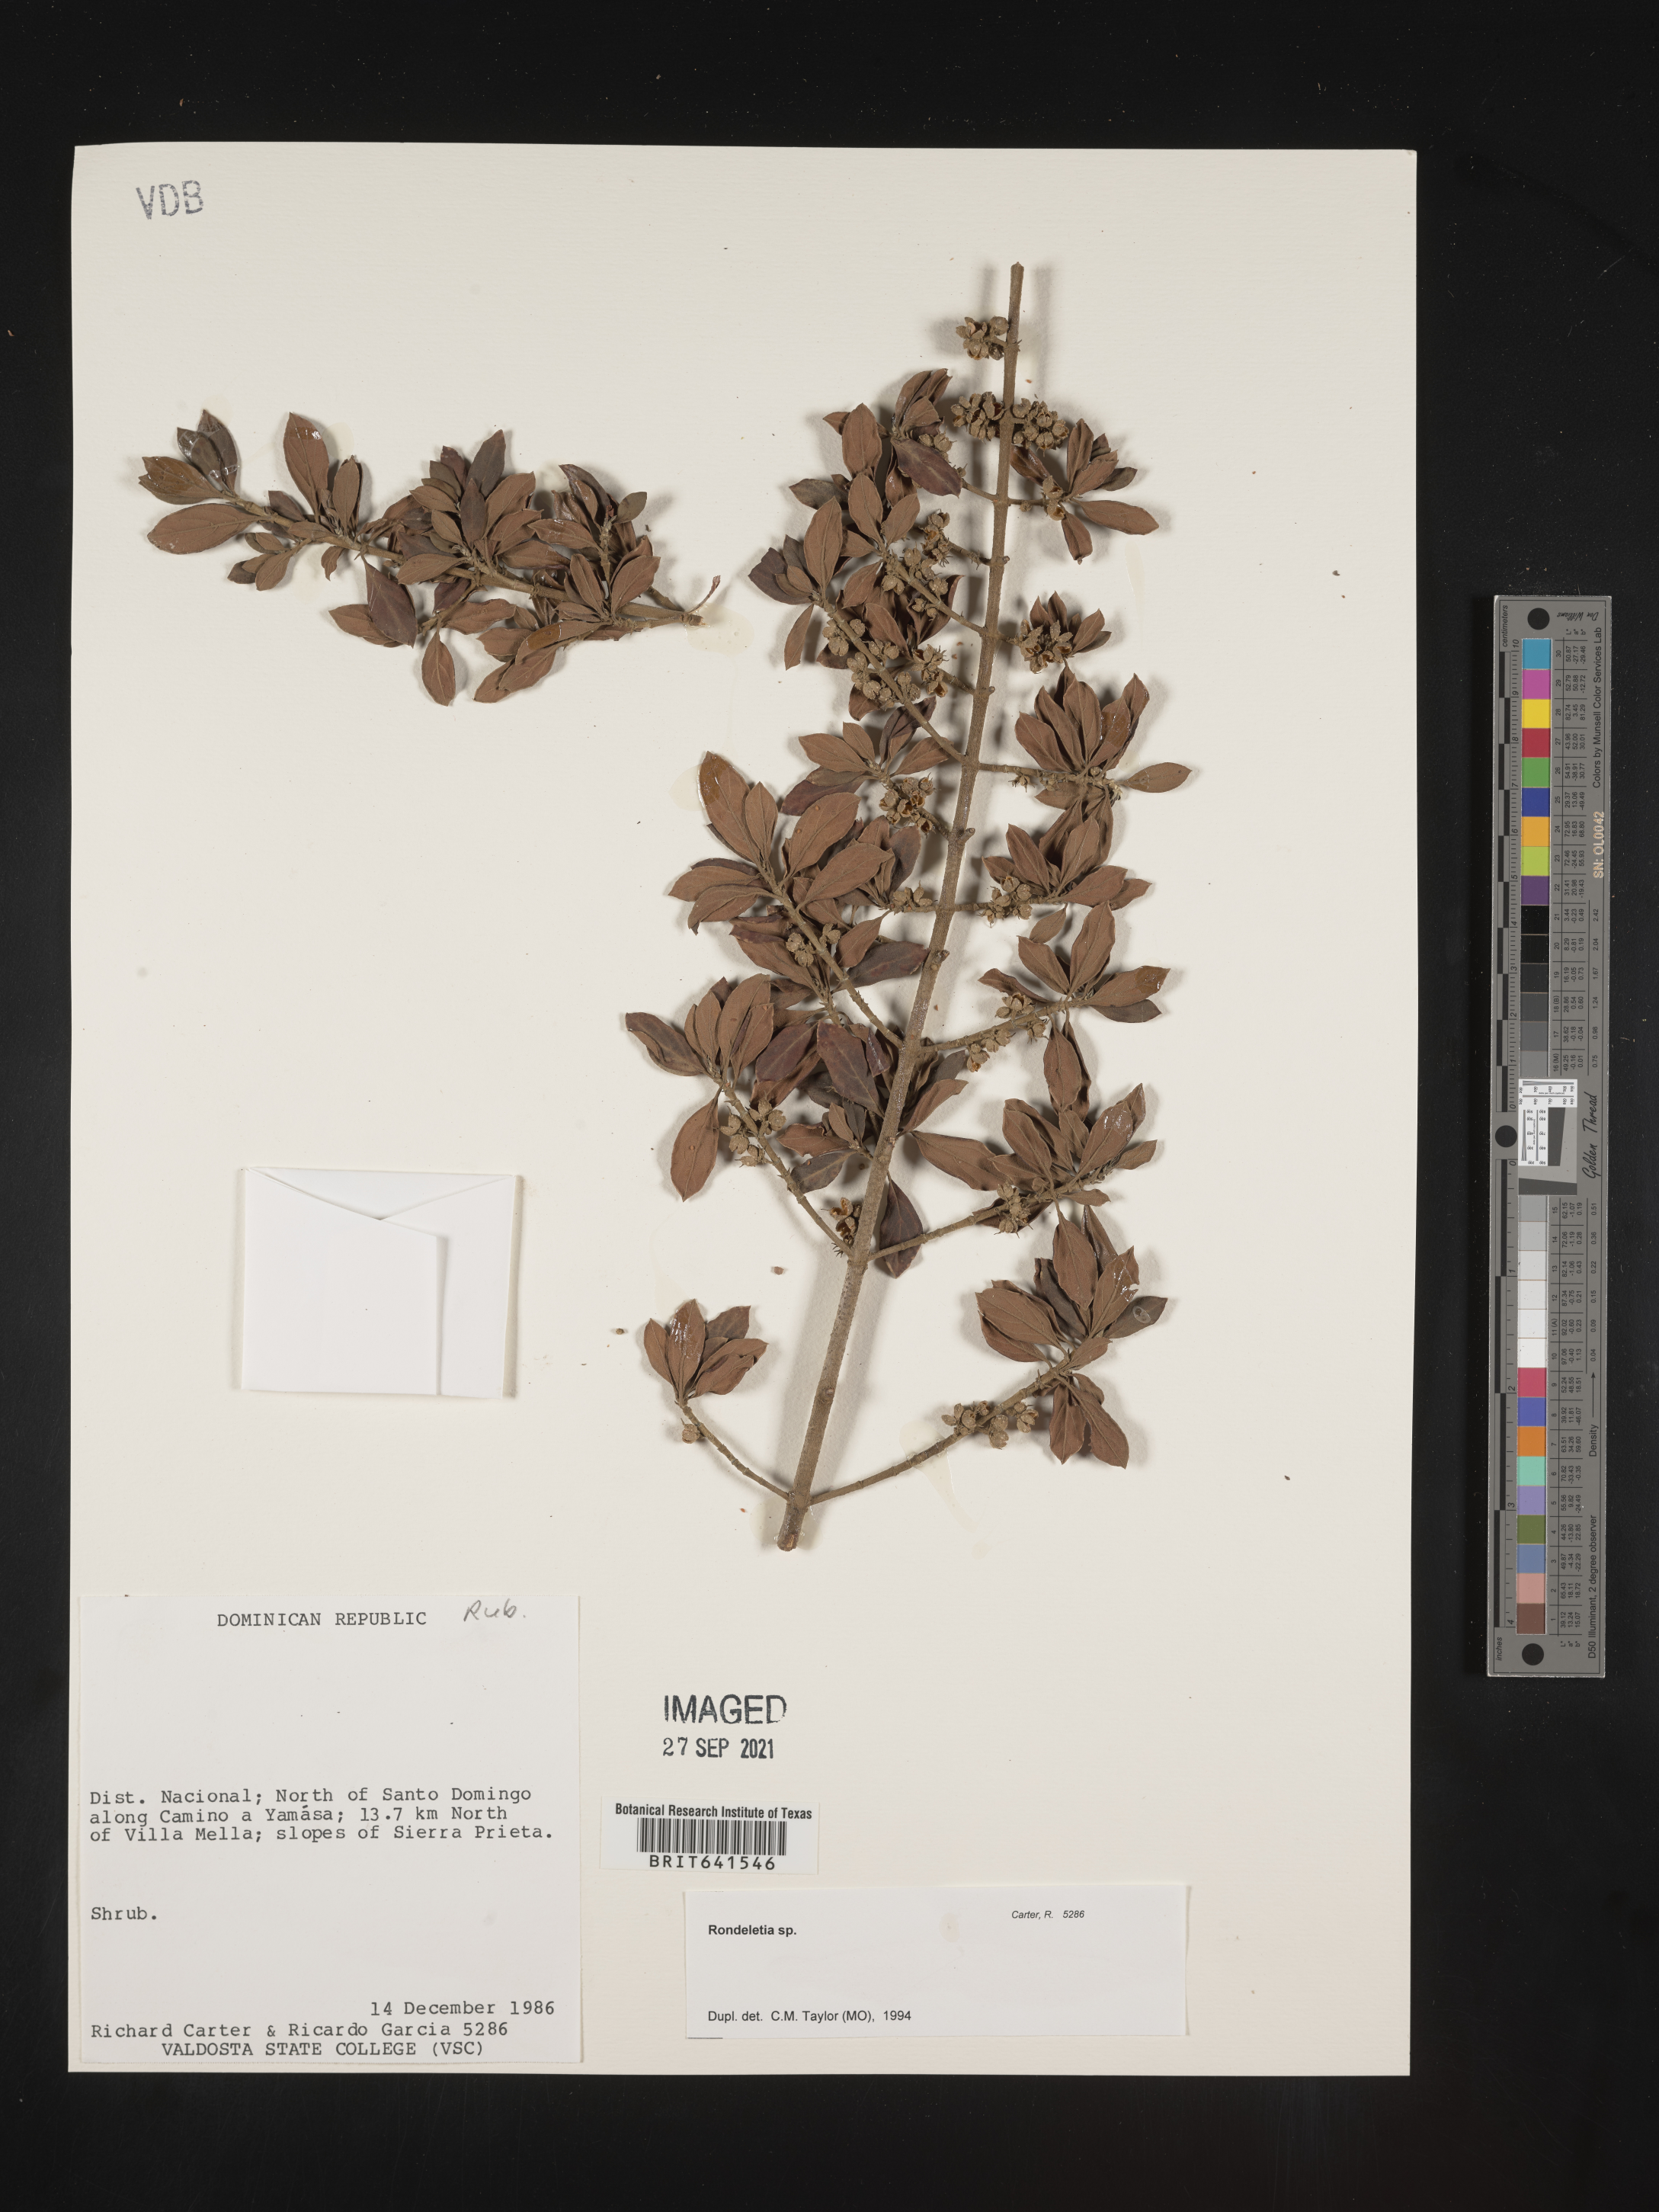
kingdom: Plantae
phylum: Tracheophyta
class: Magnoliopsida
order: Gentianales
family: Rubiaceae
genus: Rondeletia
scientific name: Rondeletia
